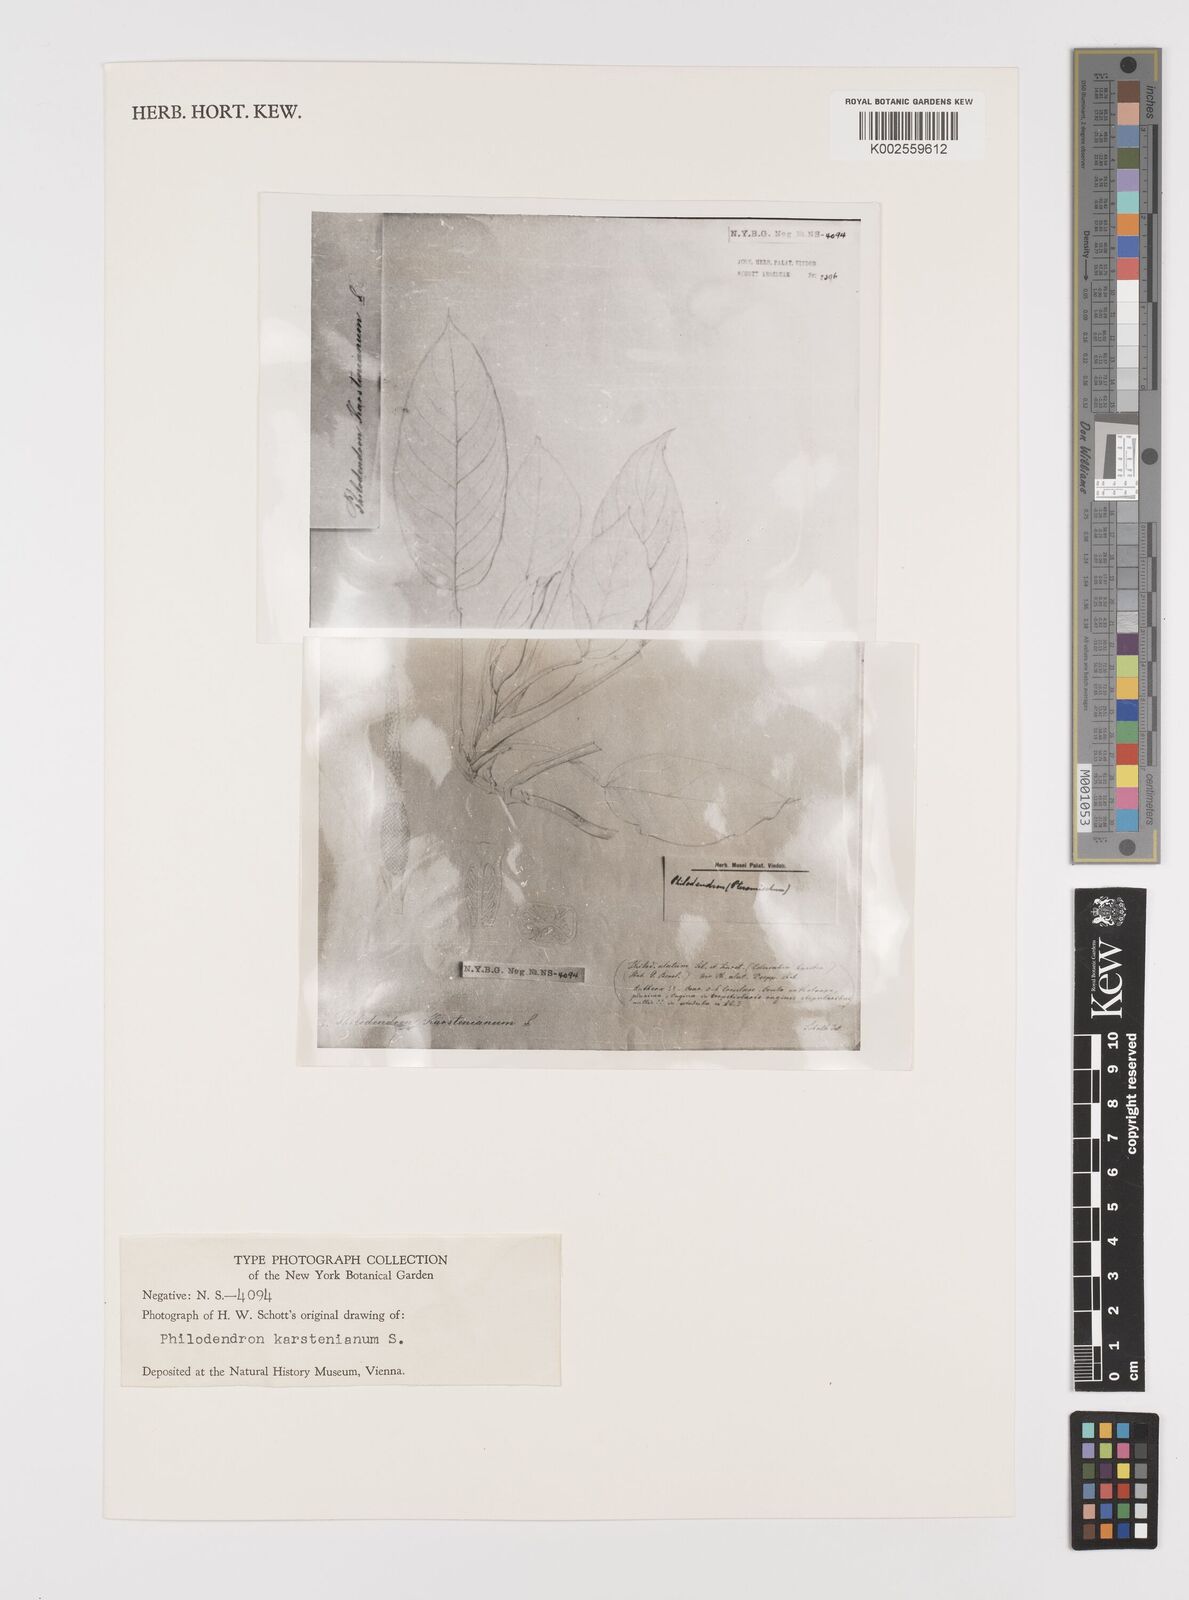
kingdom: Plantae
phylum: Tracheophyta
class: Liliopsida
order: Alismatales
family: Araceae
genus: Philodendron
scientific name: Philodendron venosum
